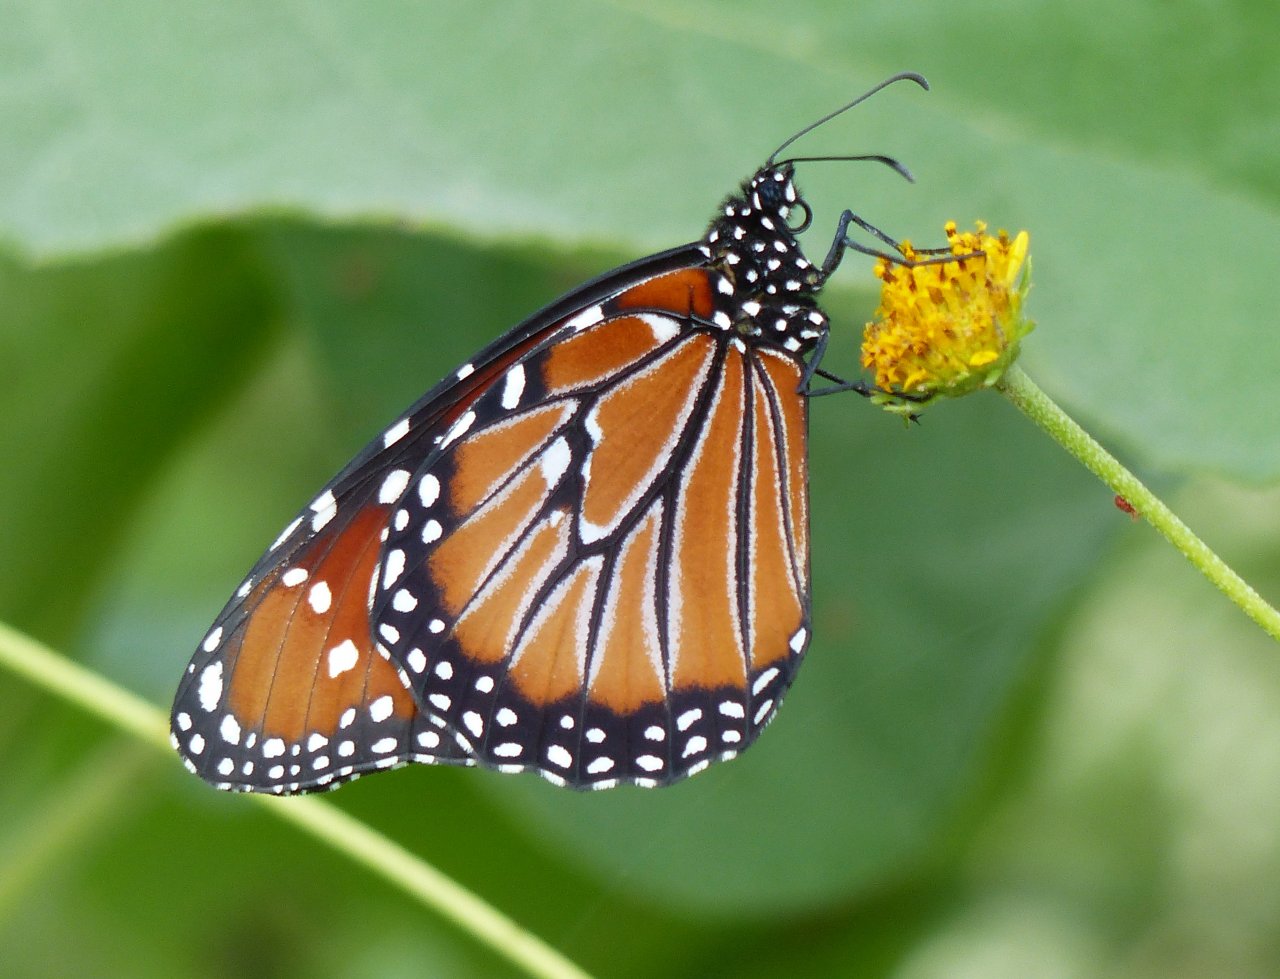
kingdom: Animalia
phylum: Arthropoda
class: Insecta
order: Lepidoptera
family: Nymphalidae
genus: Danaus
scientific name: Danaus gilippus
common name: Queen
